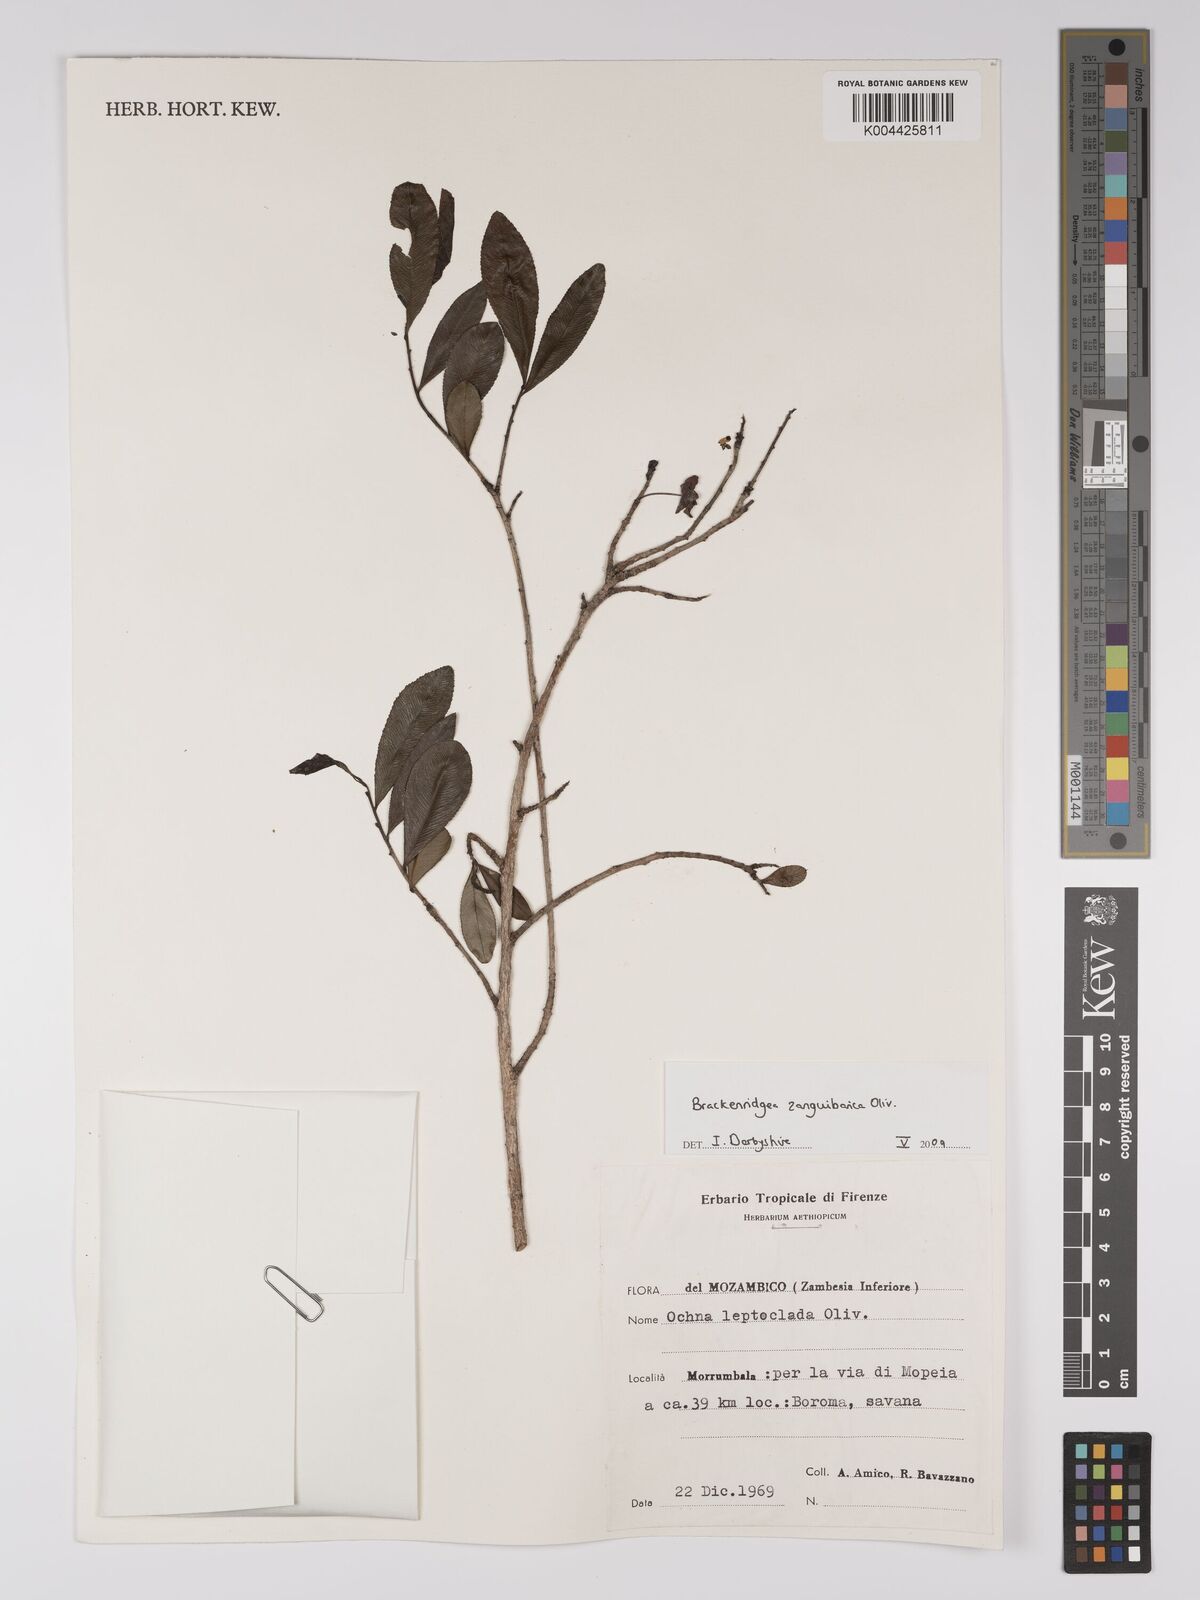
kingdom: Plantae
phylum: Tracheophyta
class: Magnoliopsida
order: Malpighiales
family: Ochnaceae
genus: Brackenridgea
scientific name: Brackenridgea zanguebarica
